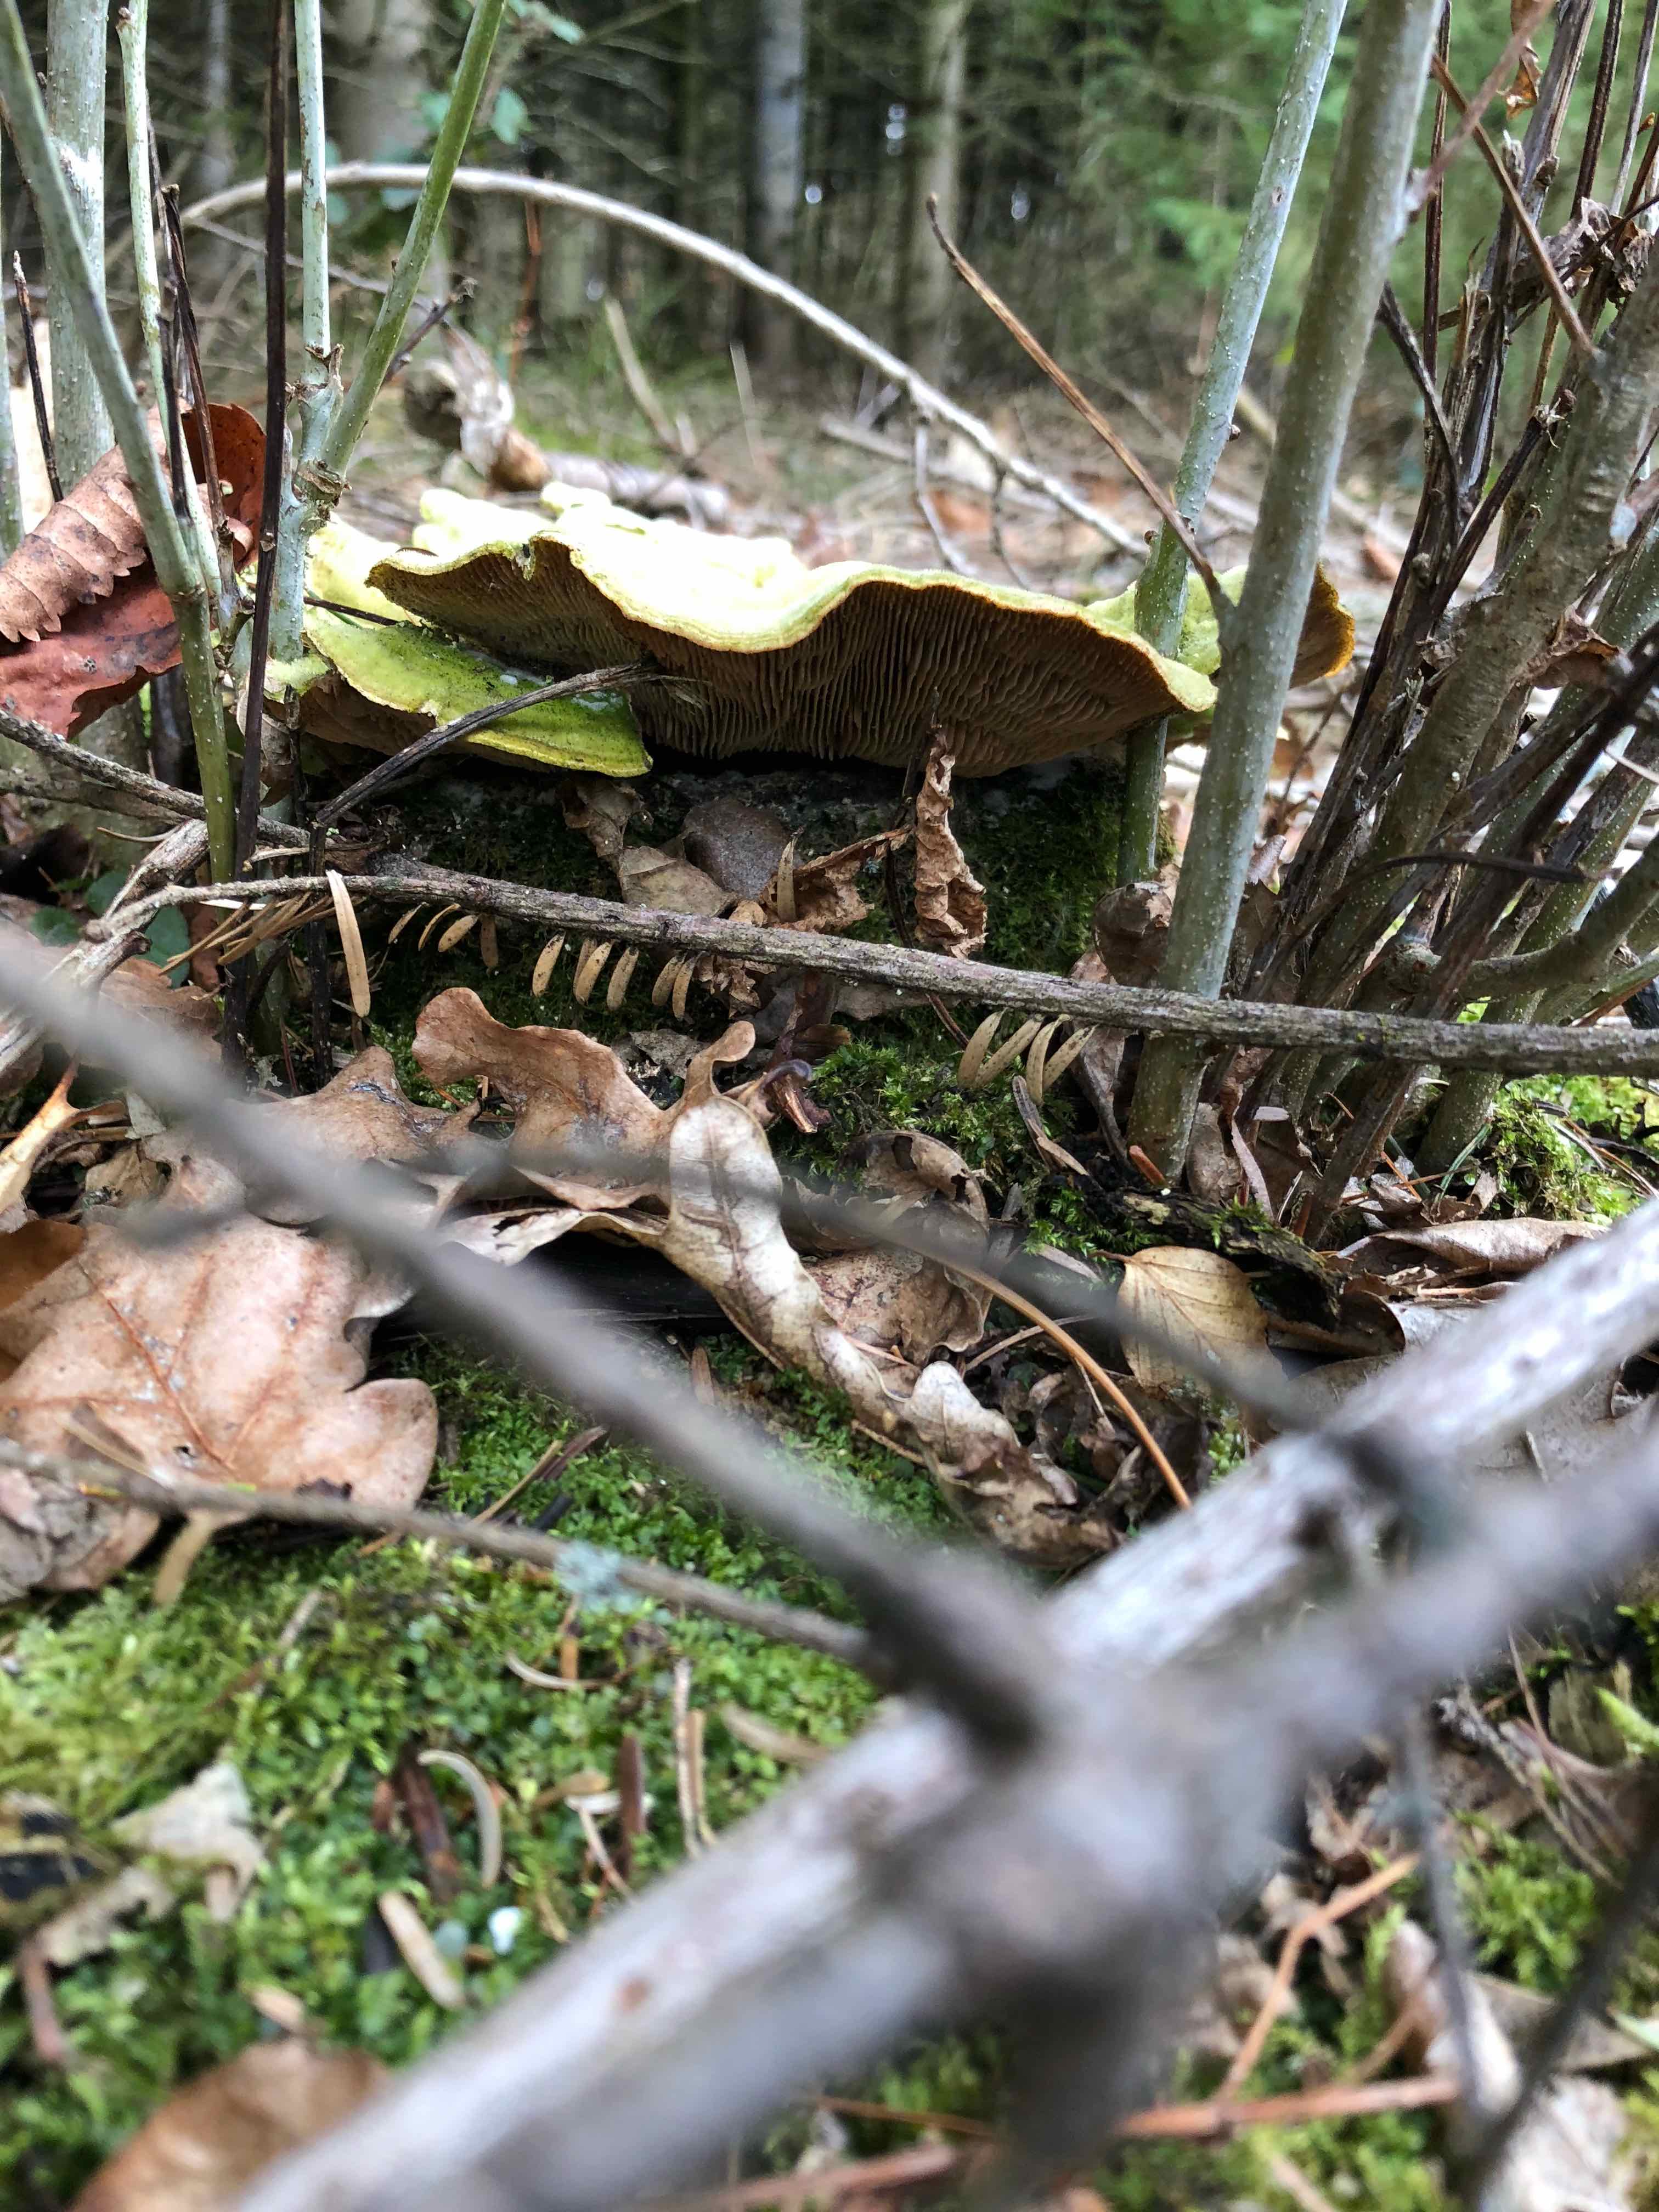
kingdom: Fungi
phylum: Basidiomycota
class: Agaricomycetes
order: Polyporales
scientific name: Polyporales
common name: poresvampordenen
